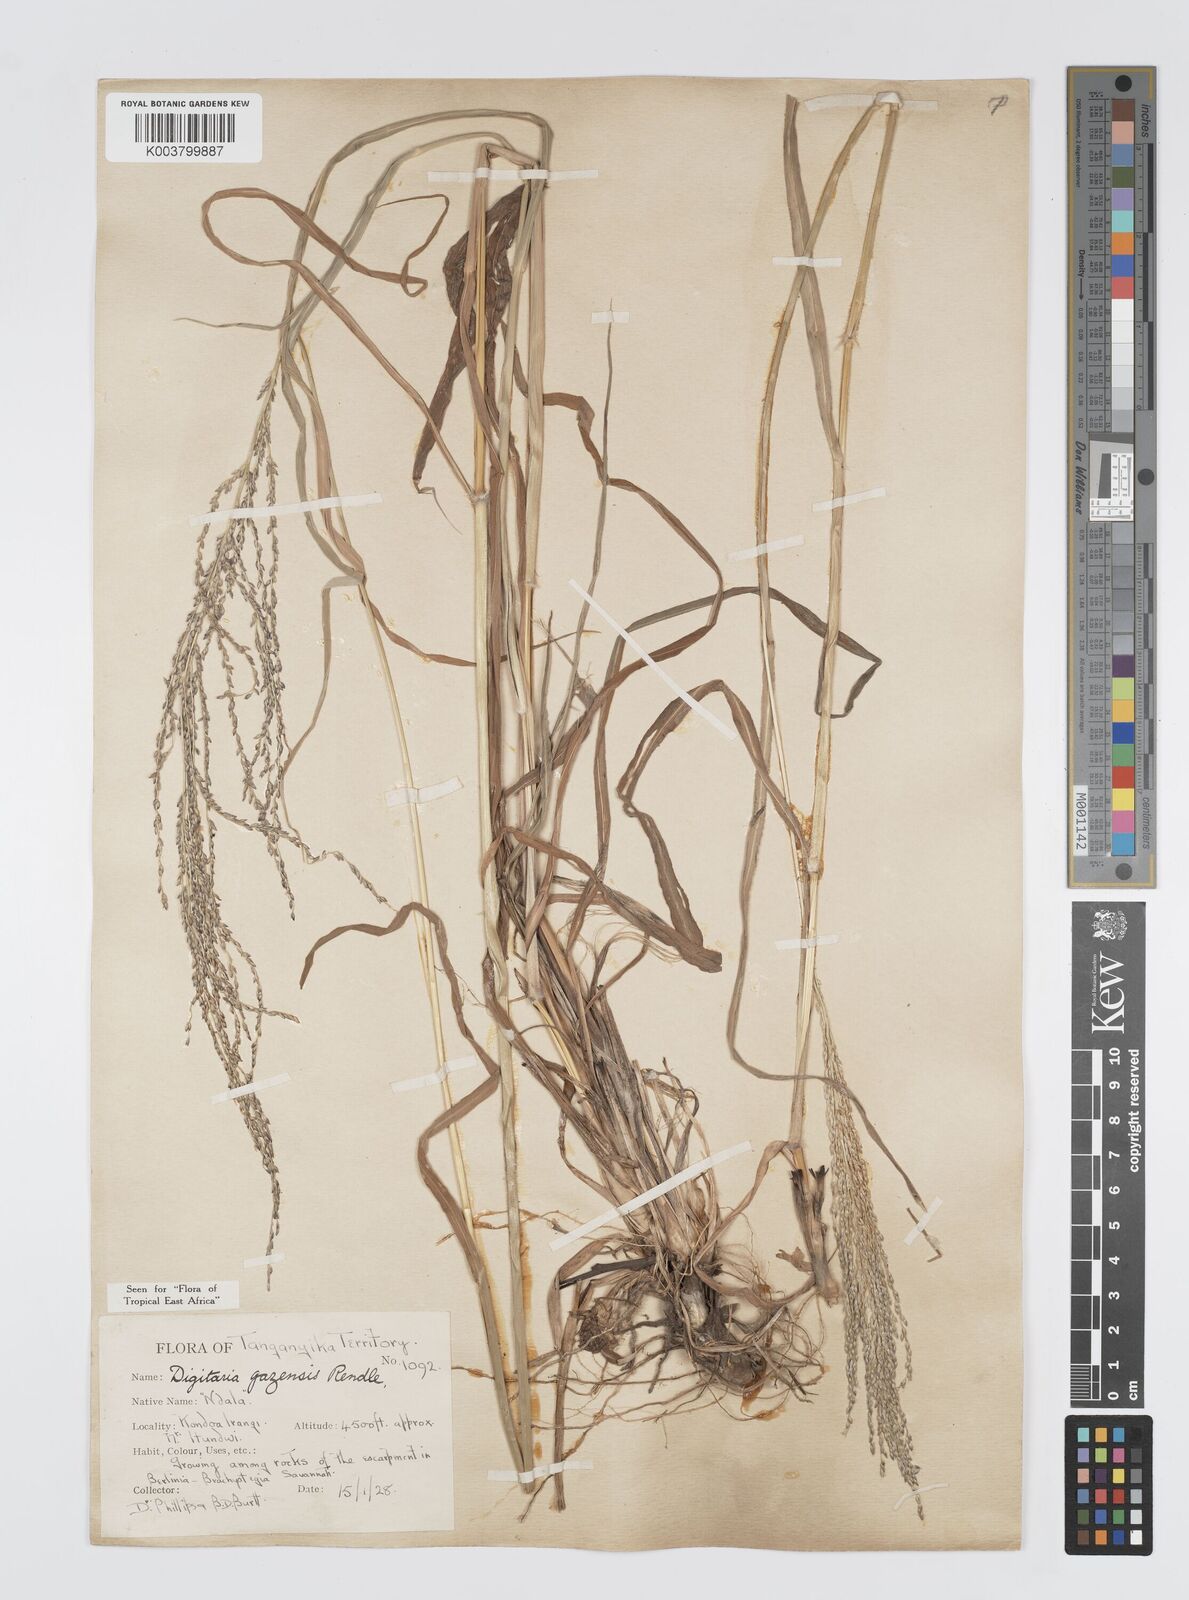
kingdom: Plantae
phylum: Tracheophyta
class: Liliopsida
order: Poales
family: Poaceae
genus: Digitaria
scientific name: Digitaria gazensis
